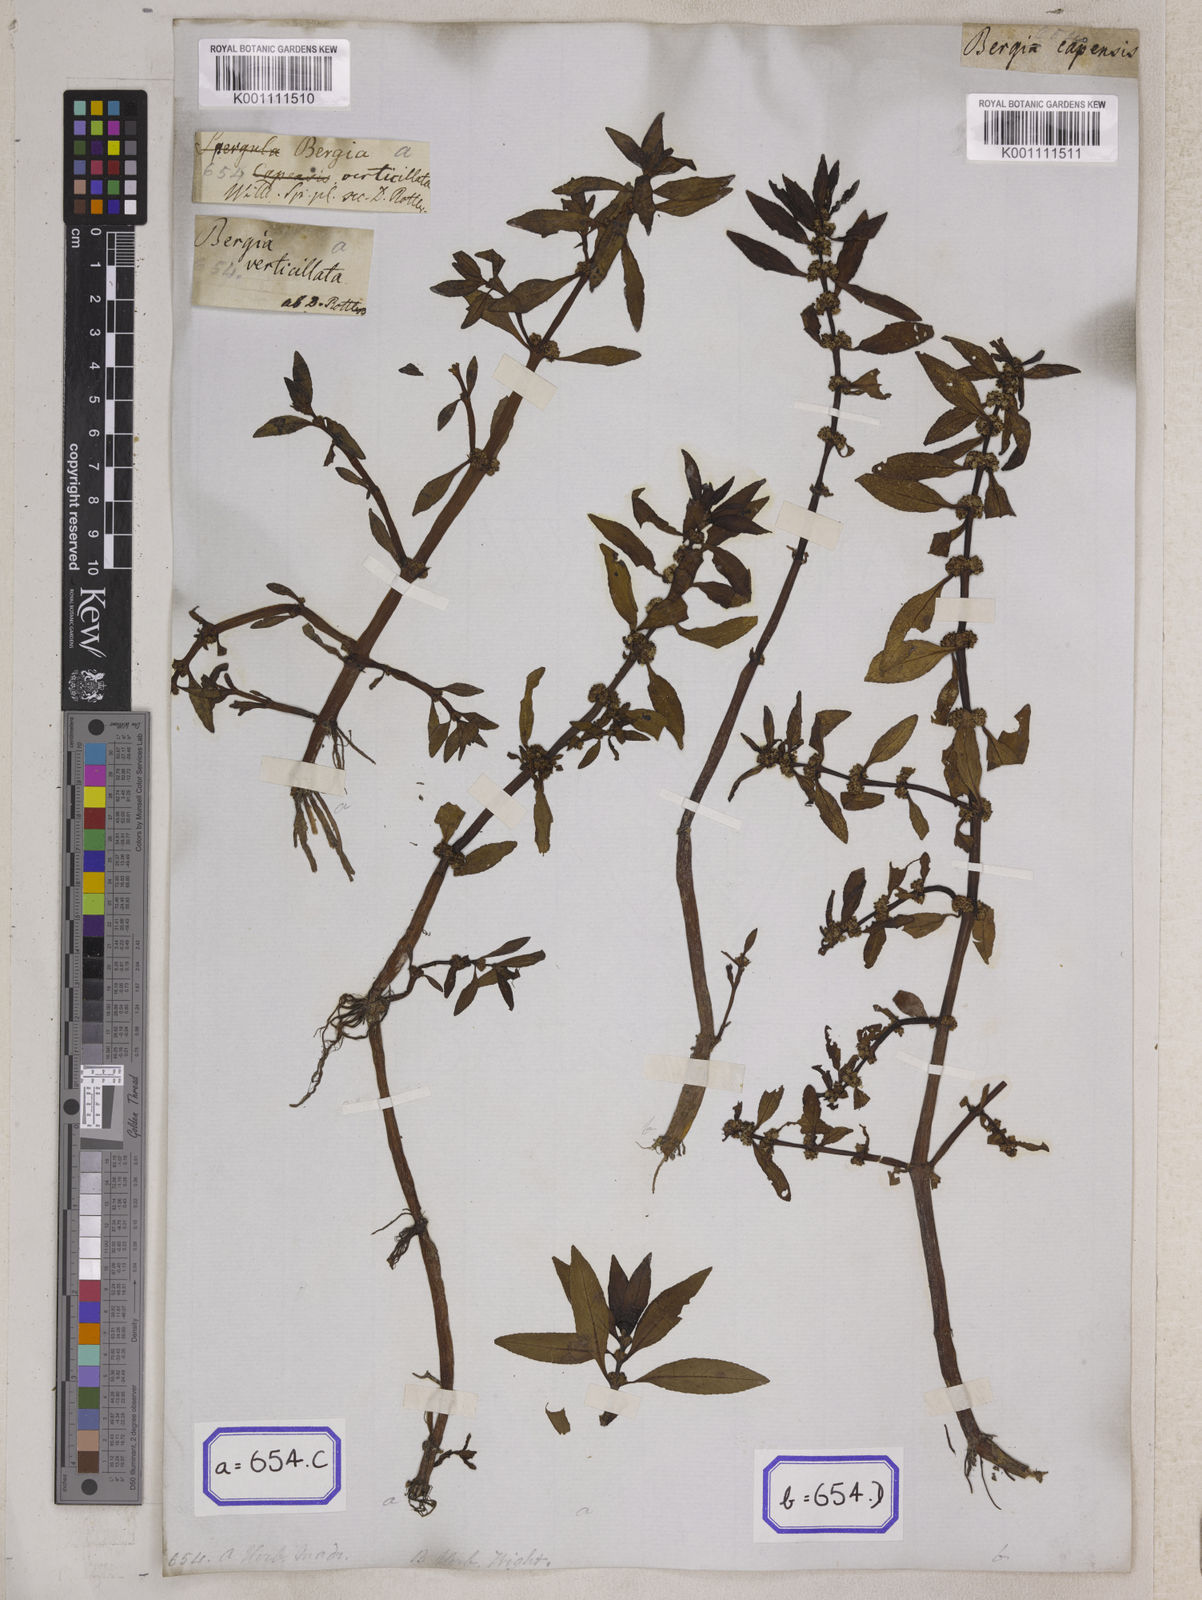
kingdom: Plantae
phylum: Tracheophyta
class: Magnoliopsida
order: Malpighiales
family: Elatinaceae
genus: Bergia
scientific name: Bergia
